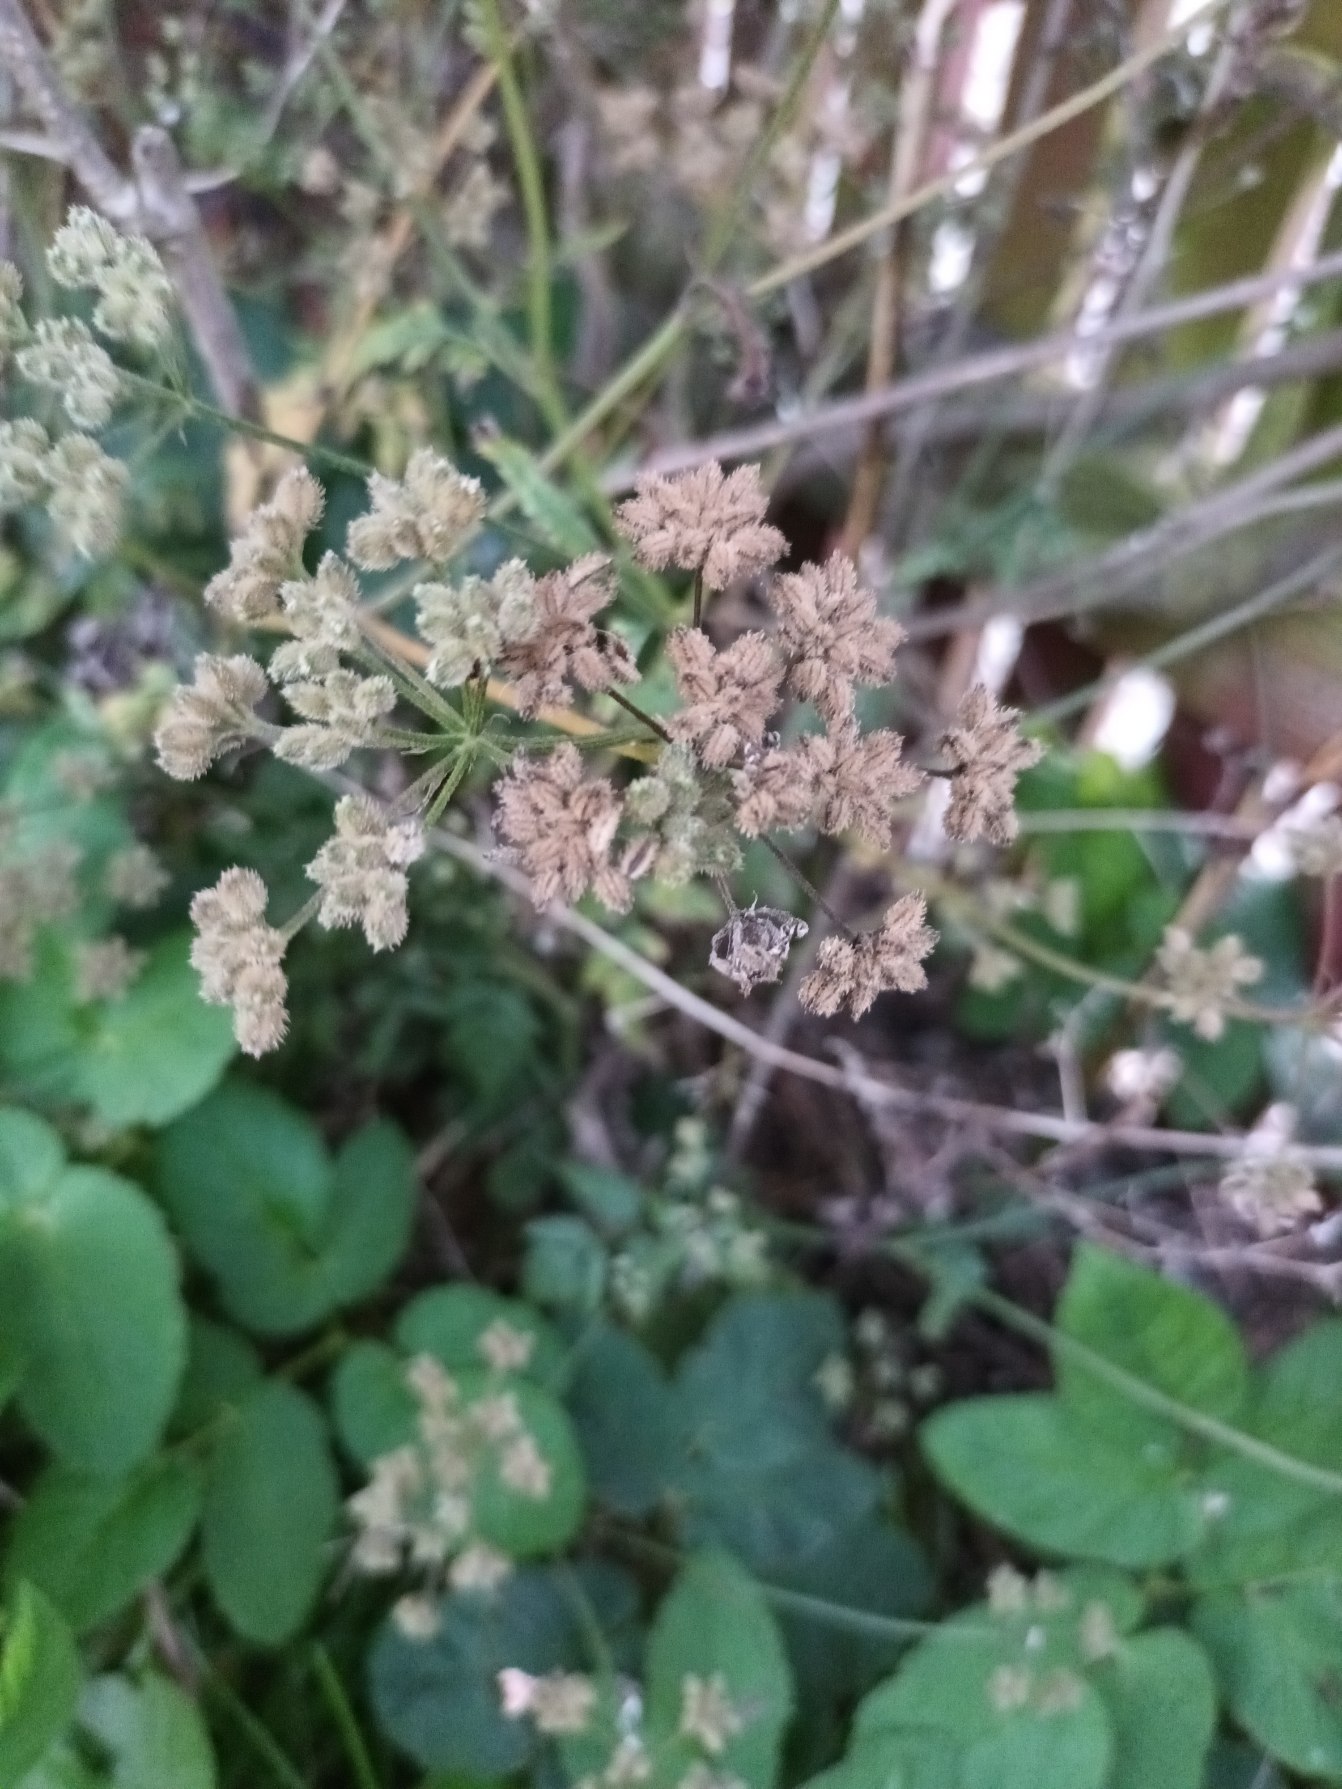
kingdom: Plantae
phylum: Tracheophyta
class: Magnoliopsida
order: Apiales
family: Apiaceae
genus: Torilis
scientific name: Torilis japonica
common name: Hvas randfrø
